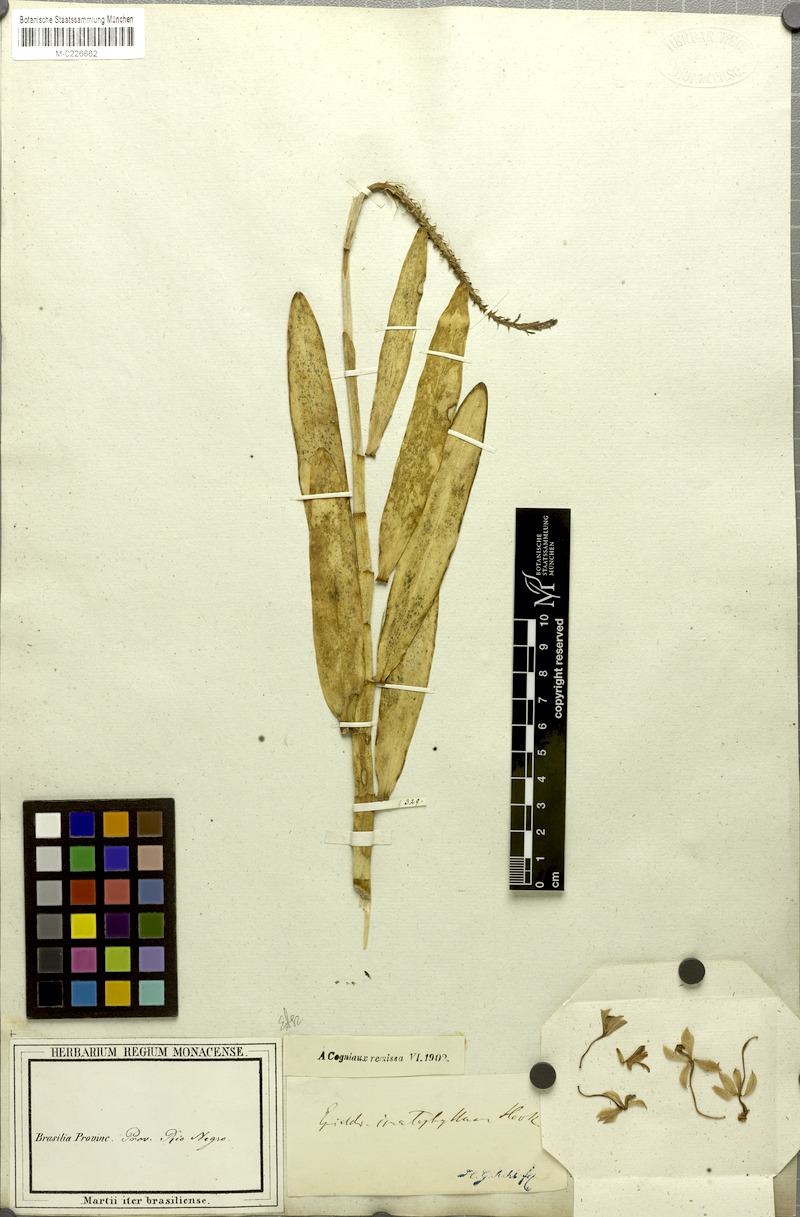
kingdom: Plantae
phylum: Tracheophyta
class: Liliopsida
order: Asparagales
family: Orchidaceae
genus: Epidendrum
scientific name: Epidendrum flexuosum
